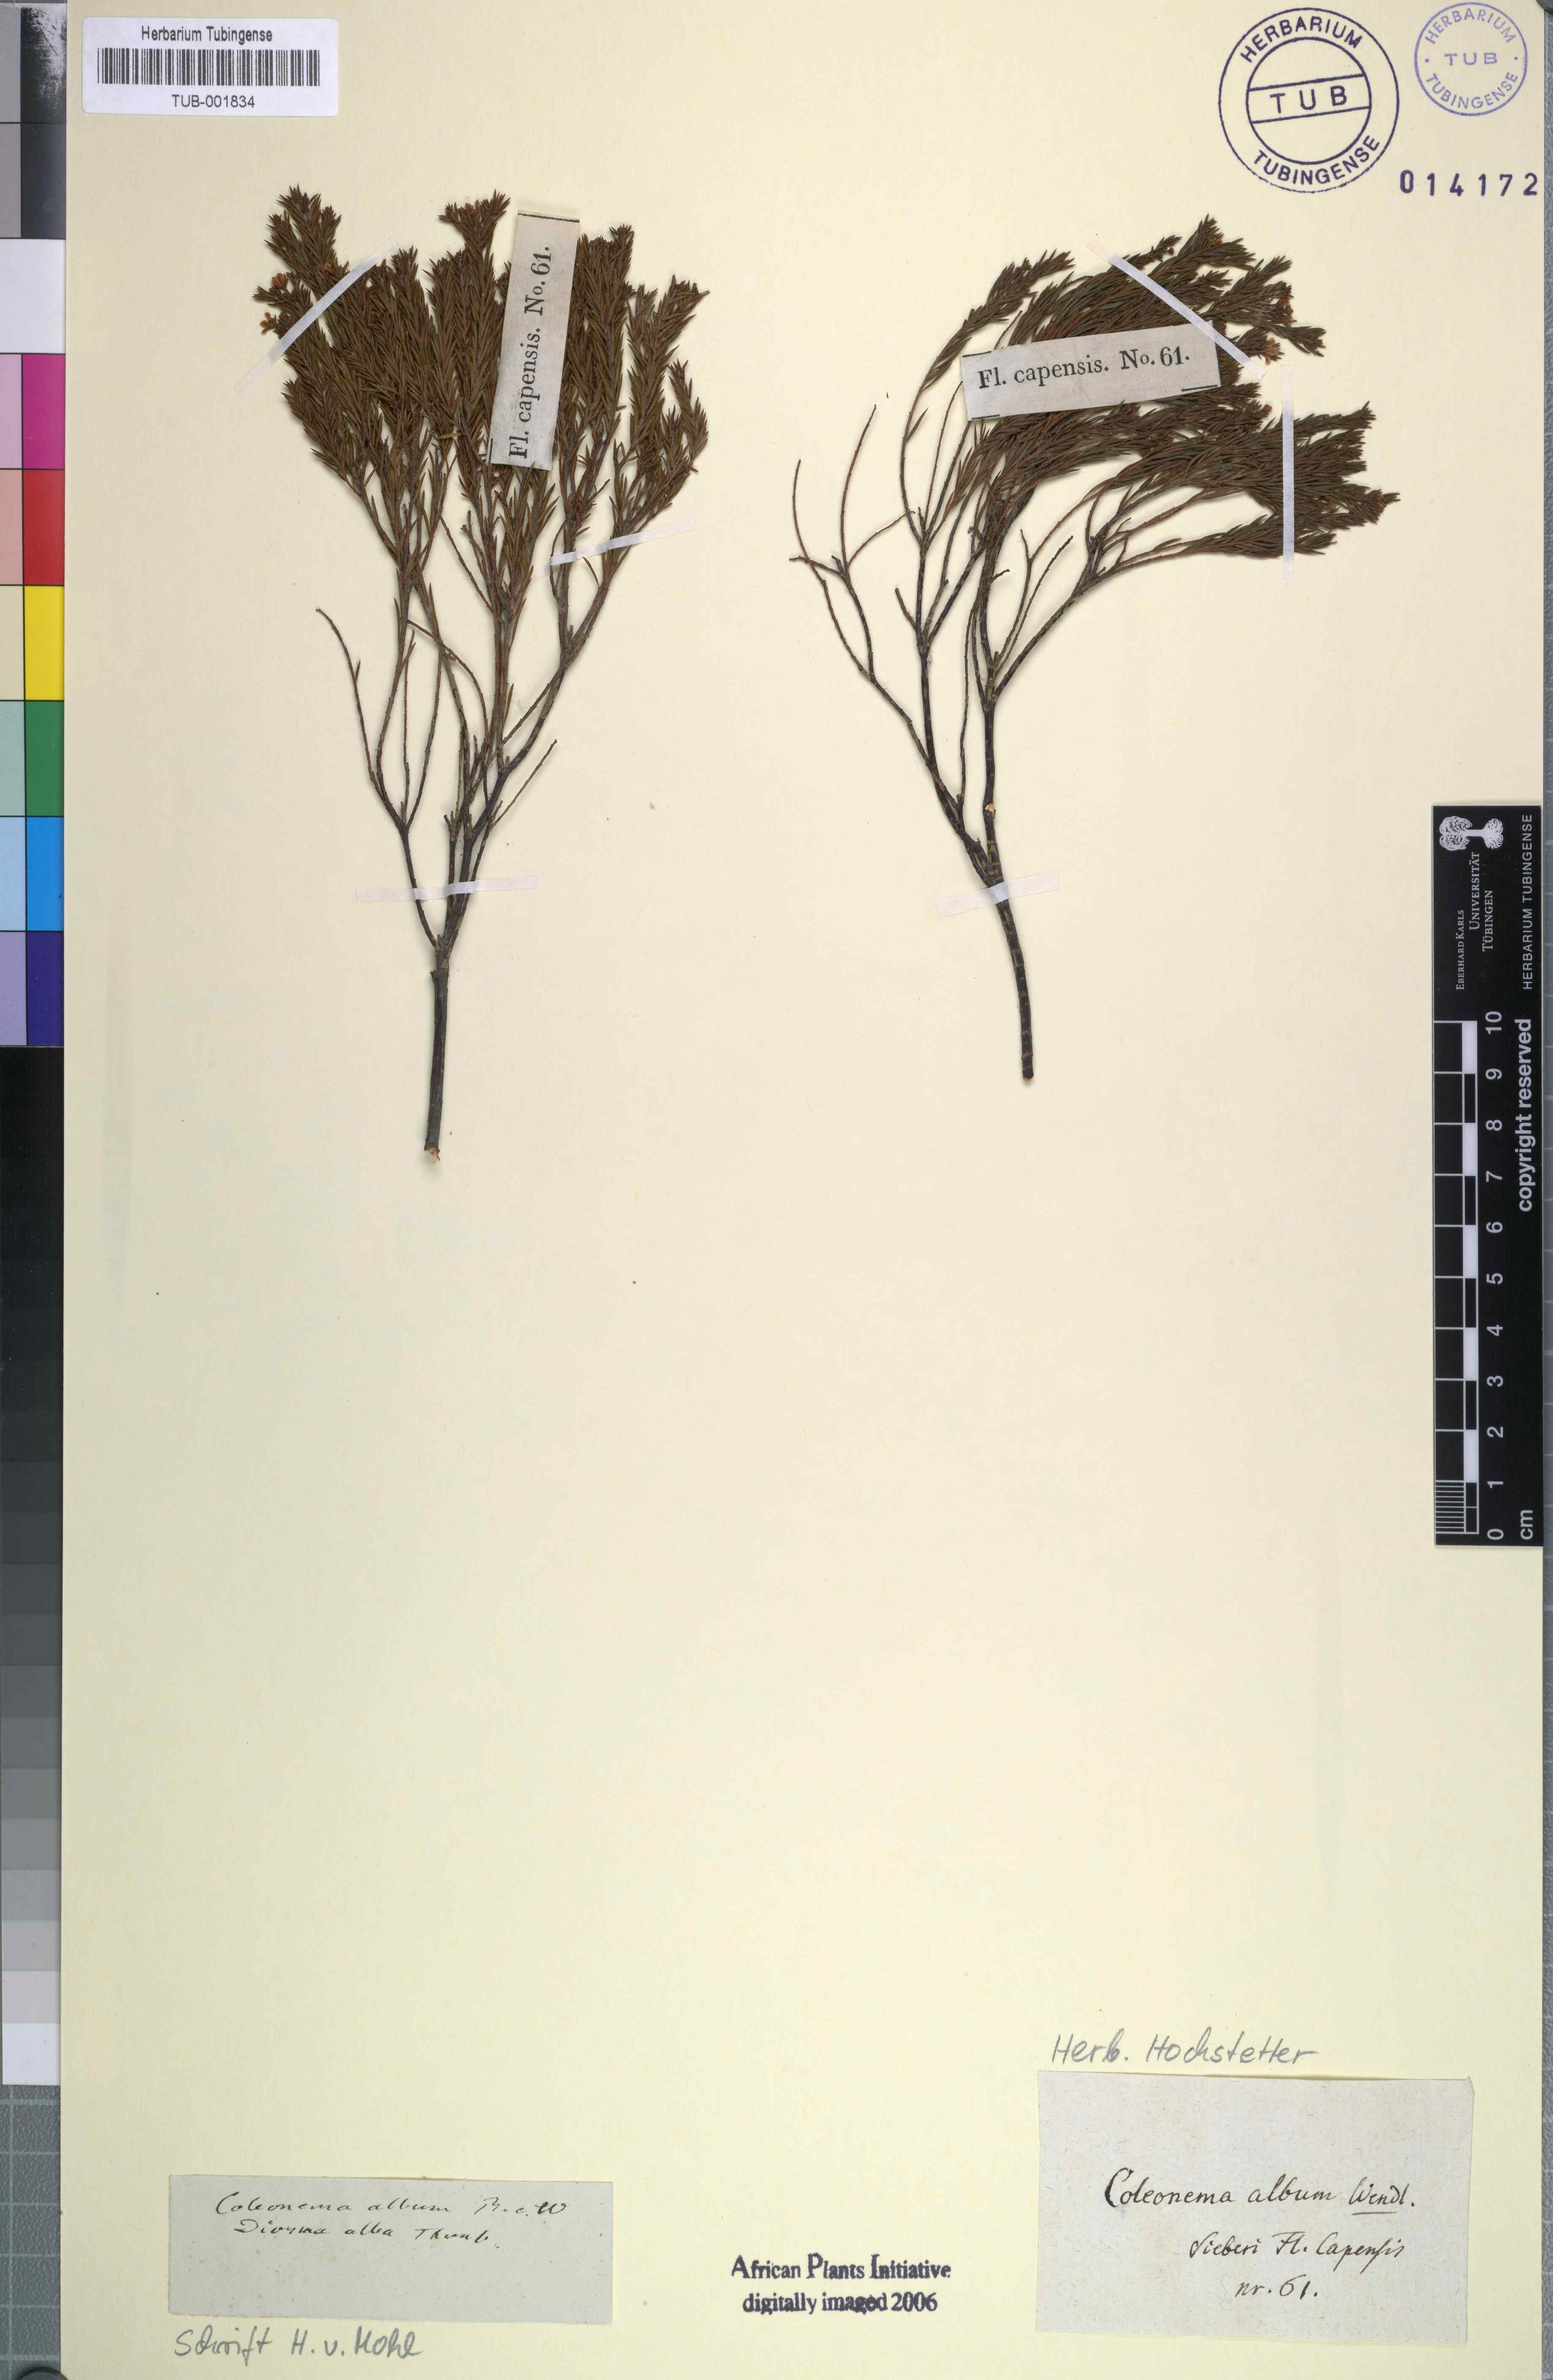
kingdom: Plantae
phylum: Tracheophyta
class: Magnoliopsida
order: Sapindales
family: Rutaceae
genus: Coleonema
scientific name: Coleonema album
